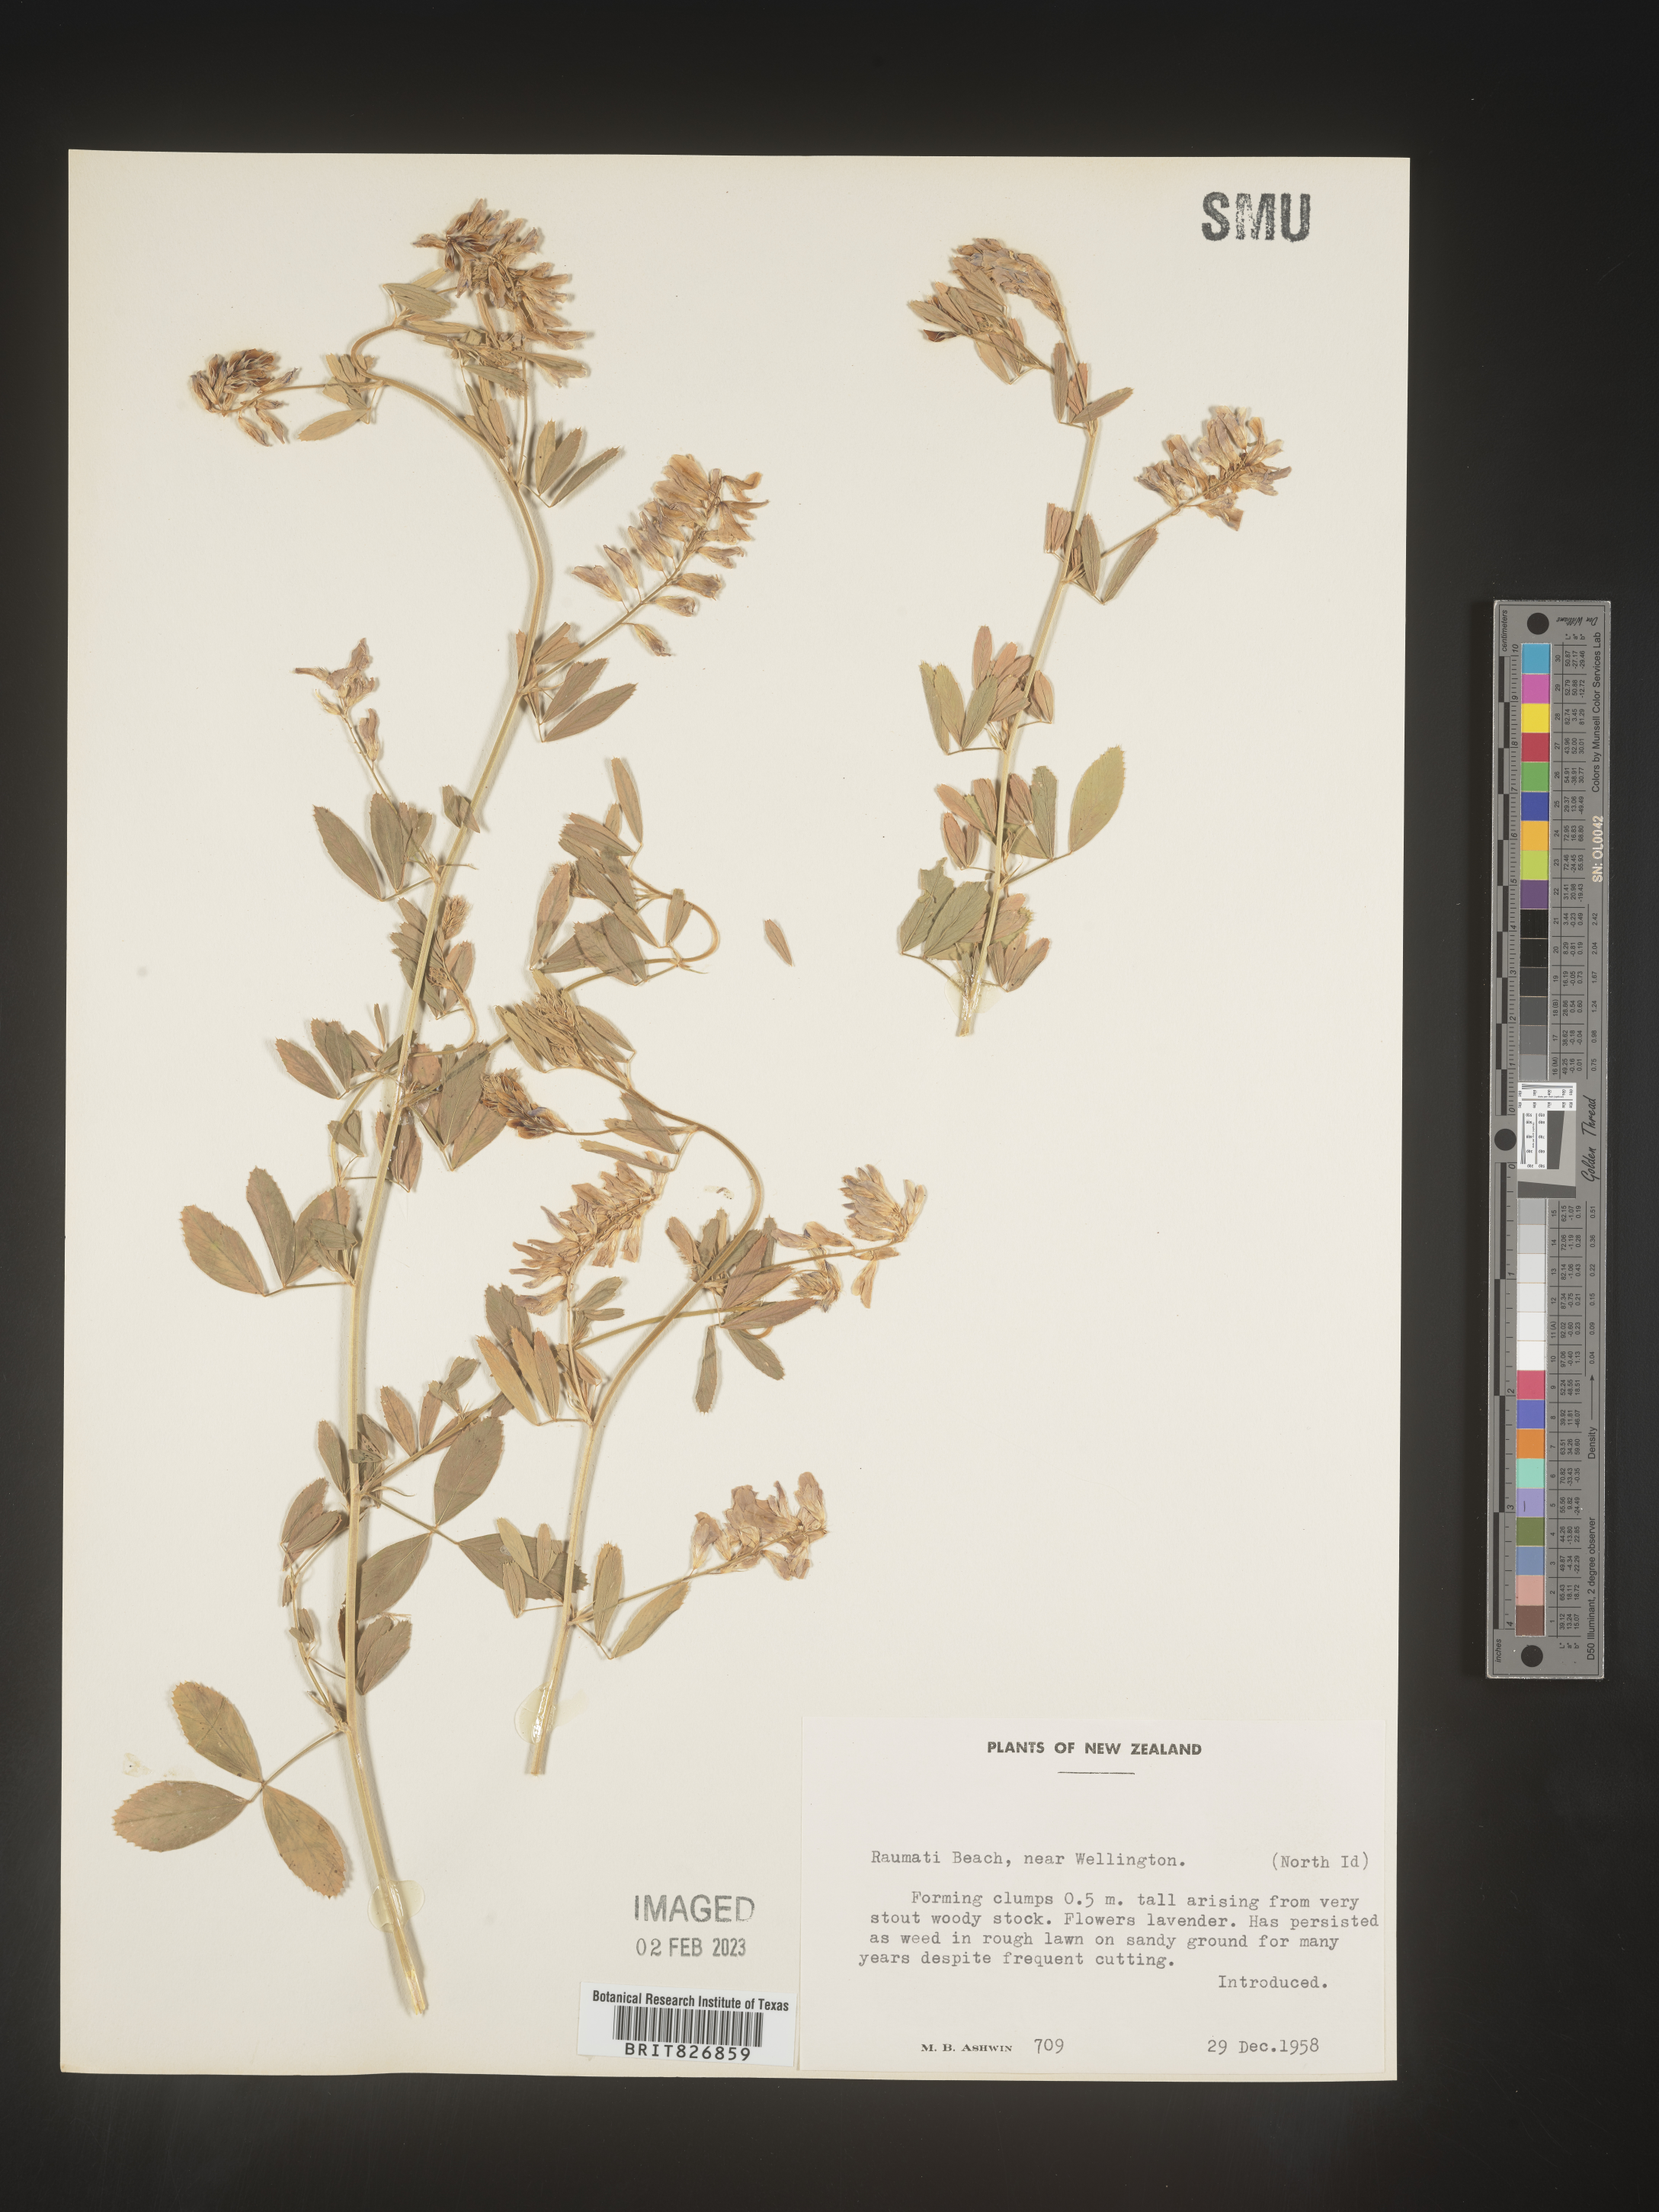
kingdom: Plantae
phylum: Tracheophyta
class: Magnoliopsida
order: Fabales
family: Fabaceae
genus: Medicago
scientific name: Medicago
